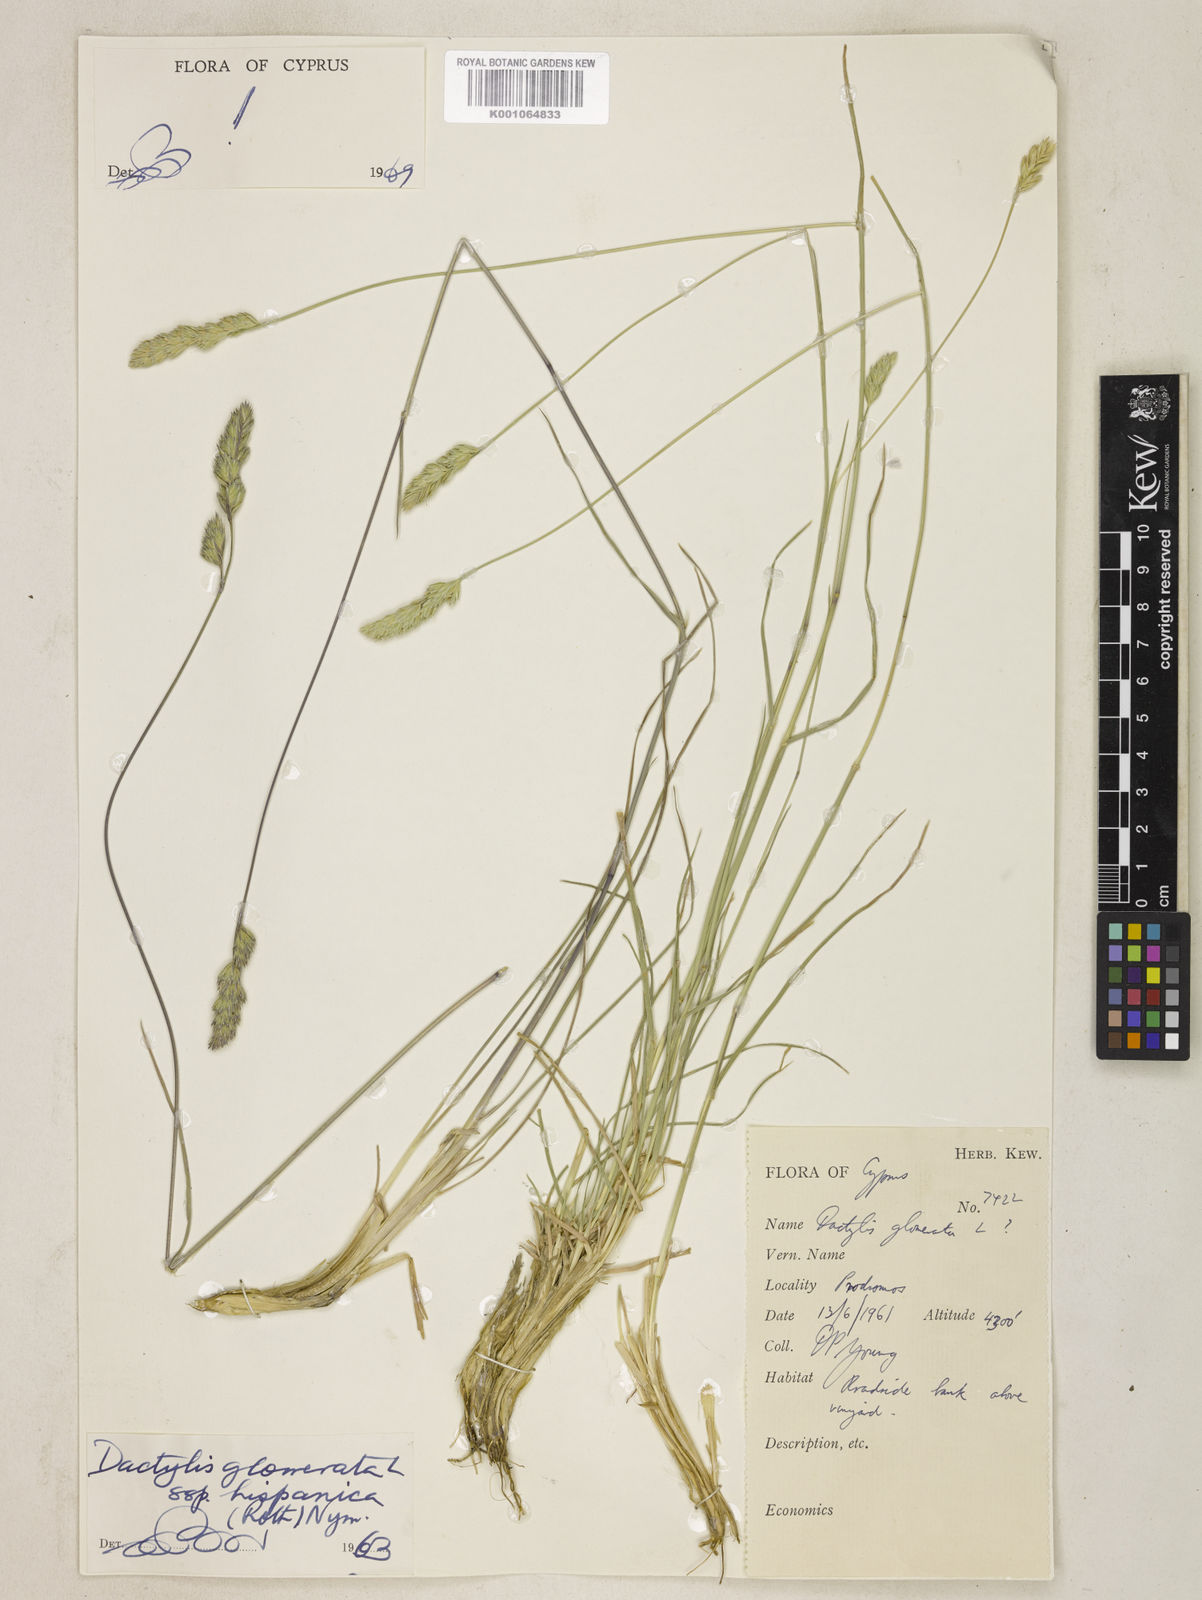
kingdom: Plantae
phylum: Tracheophyta
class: Liliopsida
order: Poales
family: Poaceae
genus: Dactylis
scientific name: Dactylis glomerata
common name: Orchardgrass
